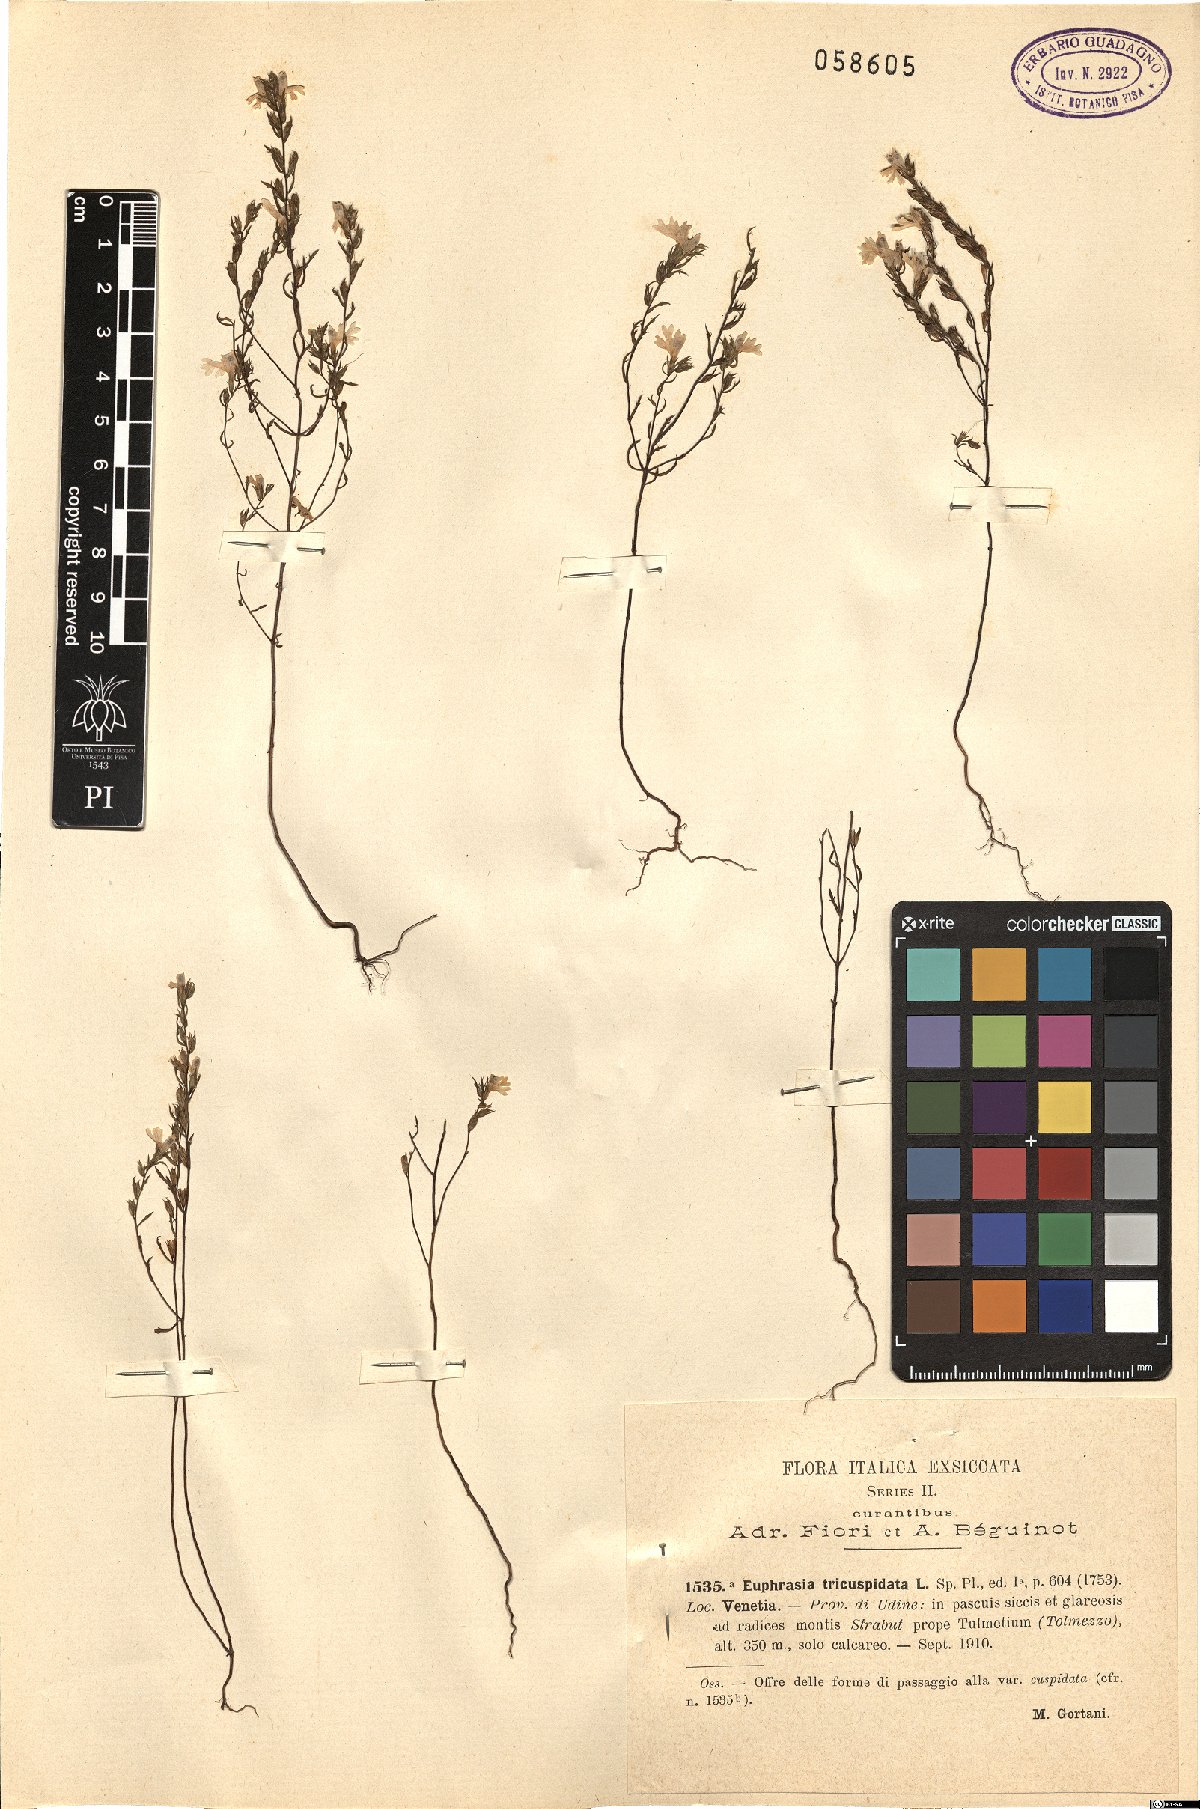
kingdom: Plantae
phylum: Tracheophyta
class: Magnoliopsida
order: Lamiales
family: Orobanchaceae
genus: Euphrasia
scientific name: Euphrasia tricuspidata
